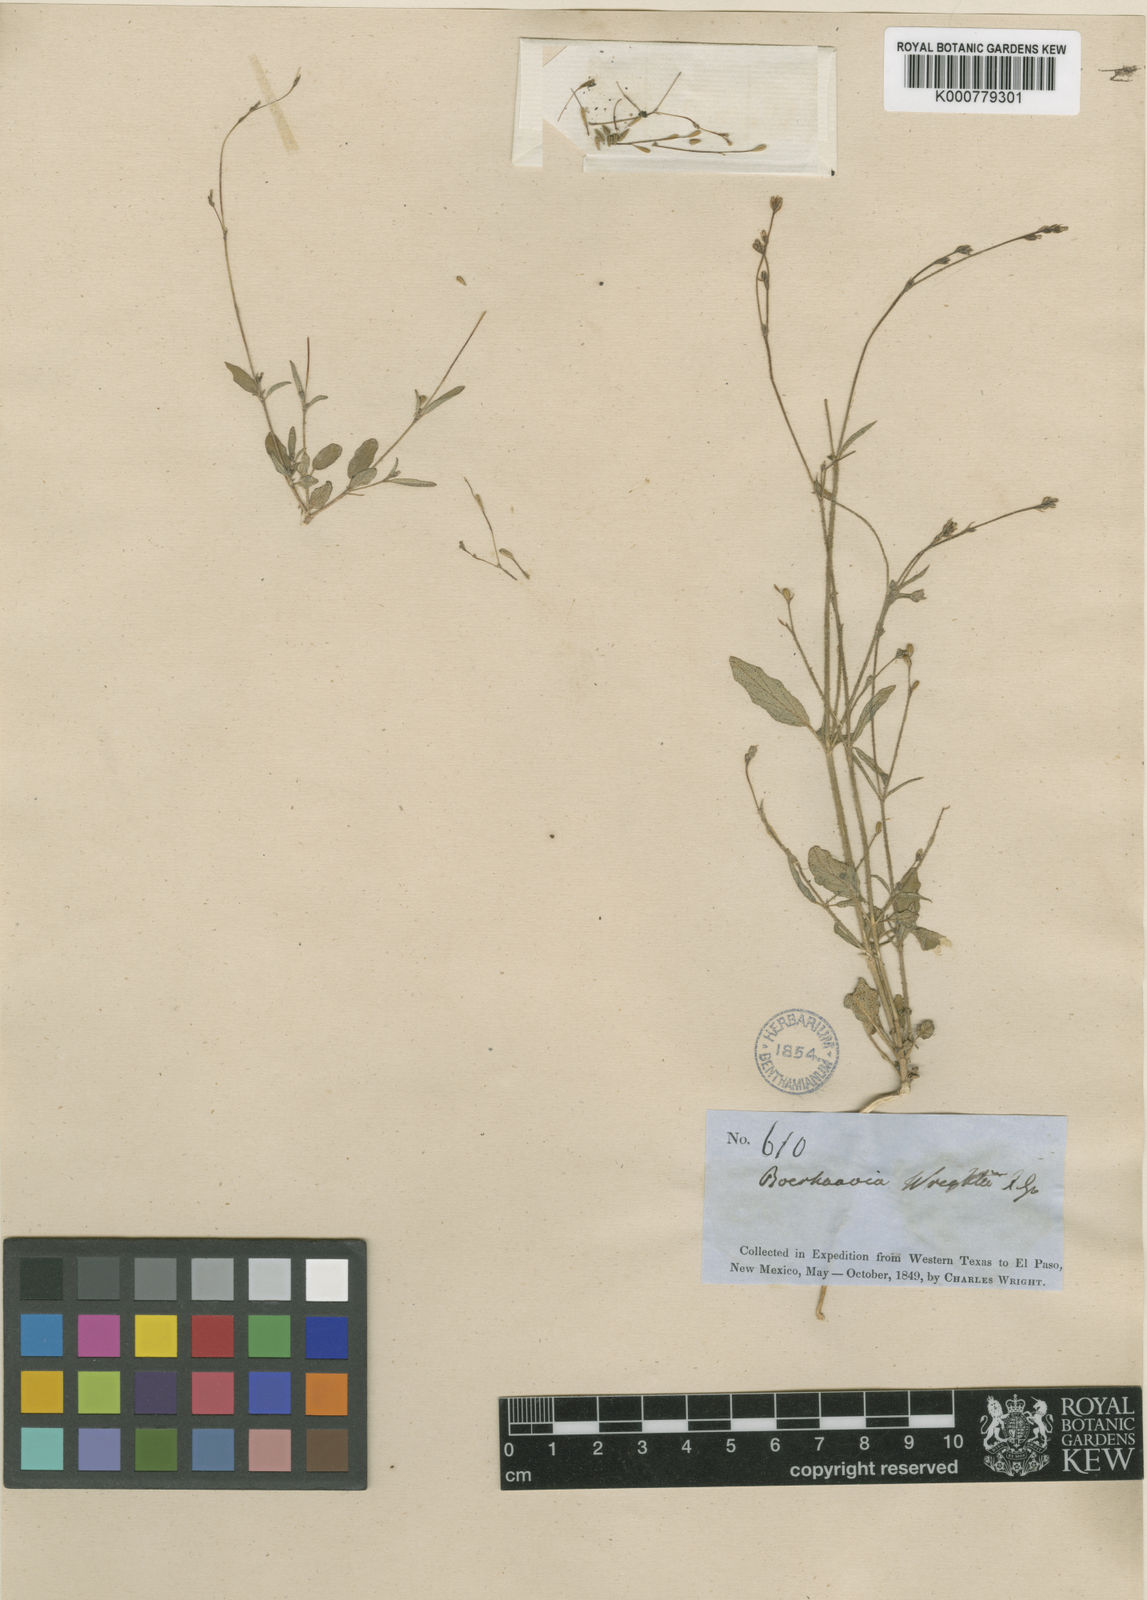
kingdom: Plantae
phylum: Tracheophyta
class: Magnoliopsida
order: Caryophyllales
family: Nyctaginaceae
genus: Boerhavia
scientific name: Boerhavia wrightii
